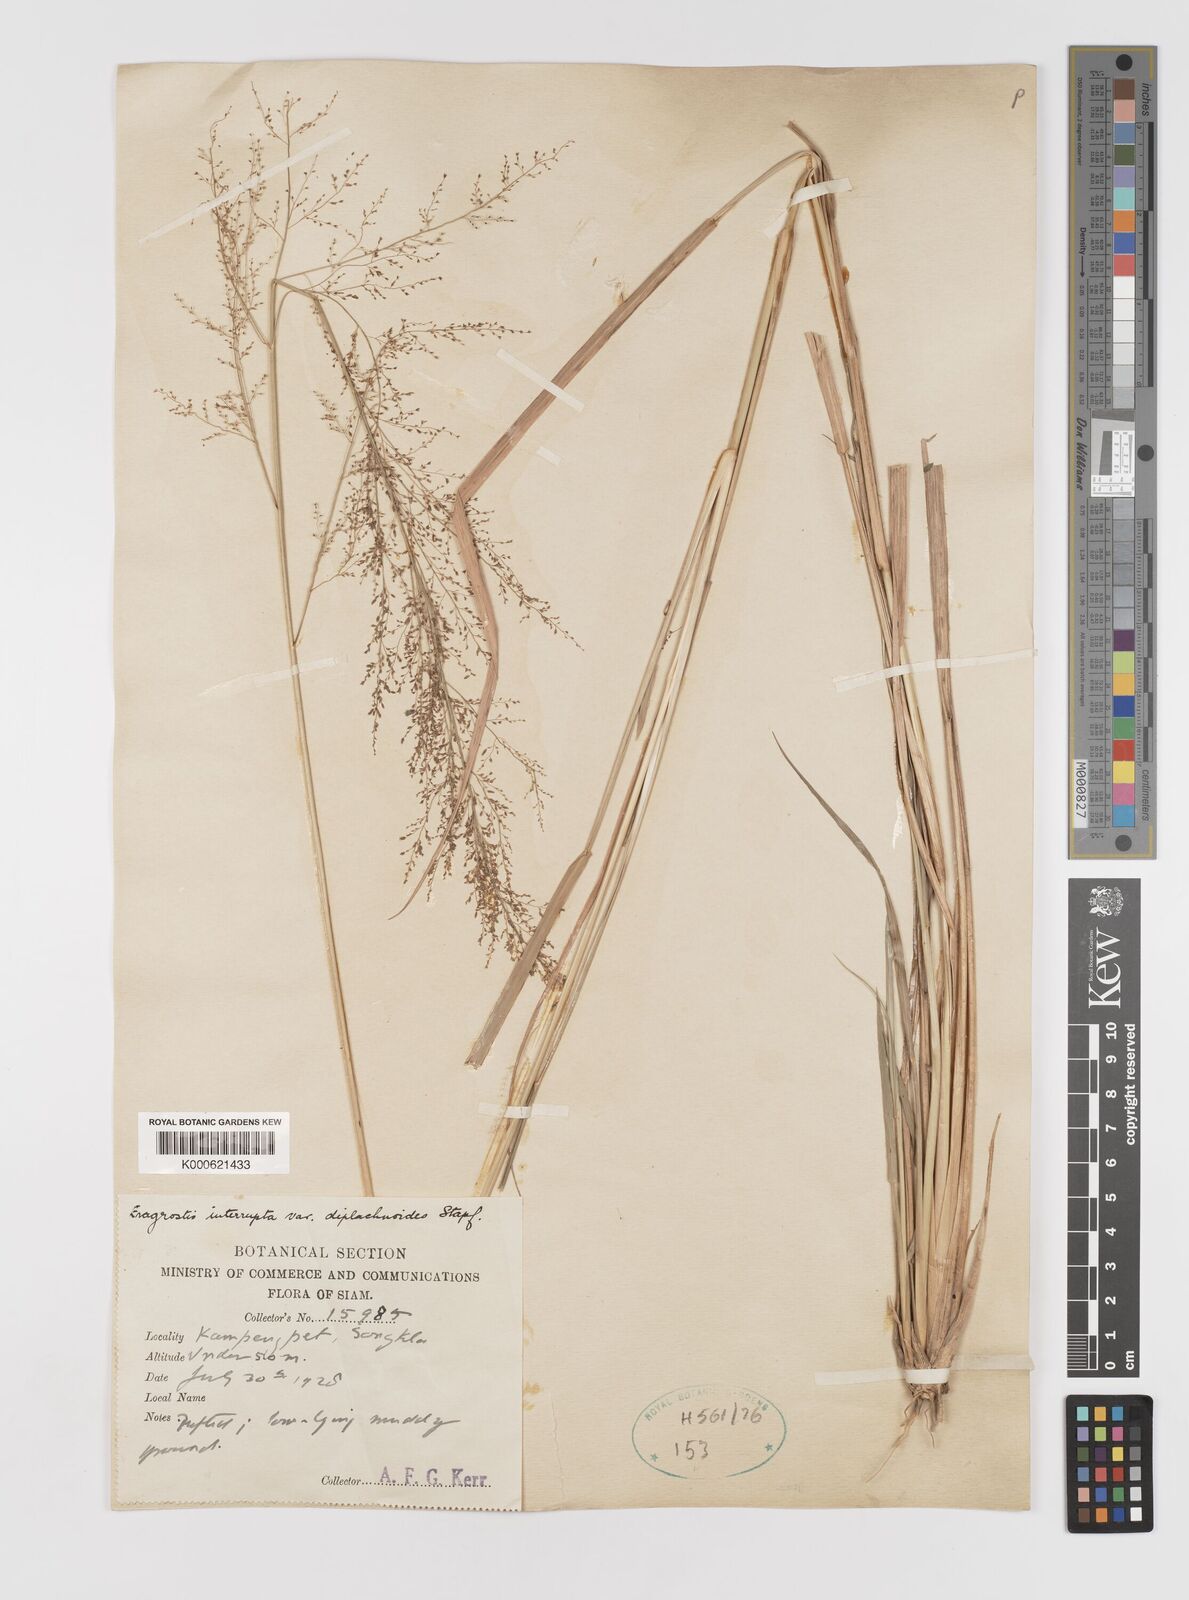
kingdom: Plantae
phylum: Tracheophyta
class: Liliopsida
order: Poales
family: Poaceae
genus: Eragrostis
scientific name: Eragrostis japonica
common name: Pond lovegrass
